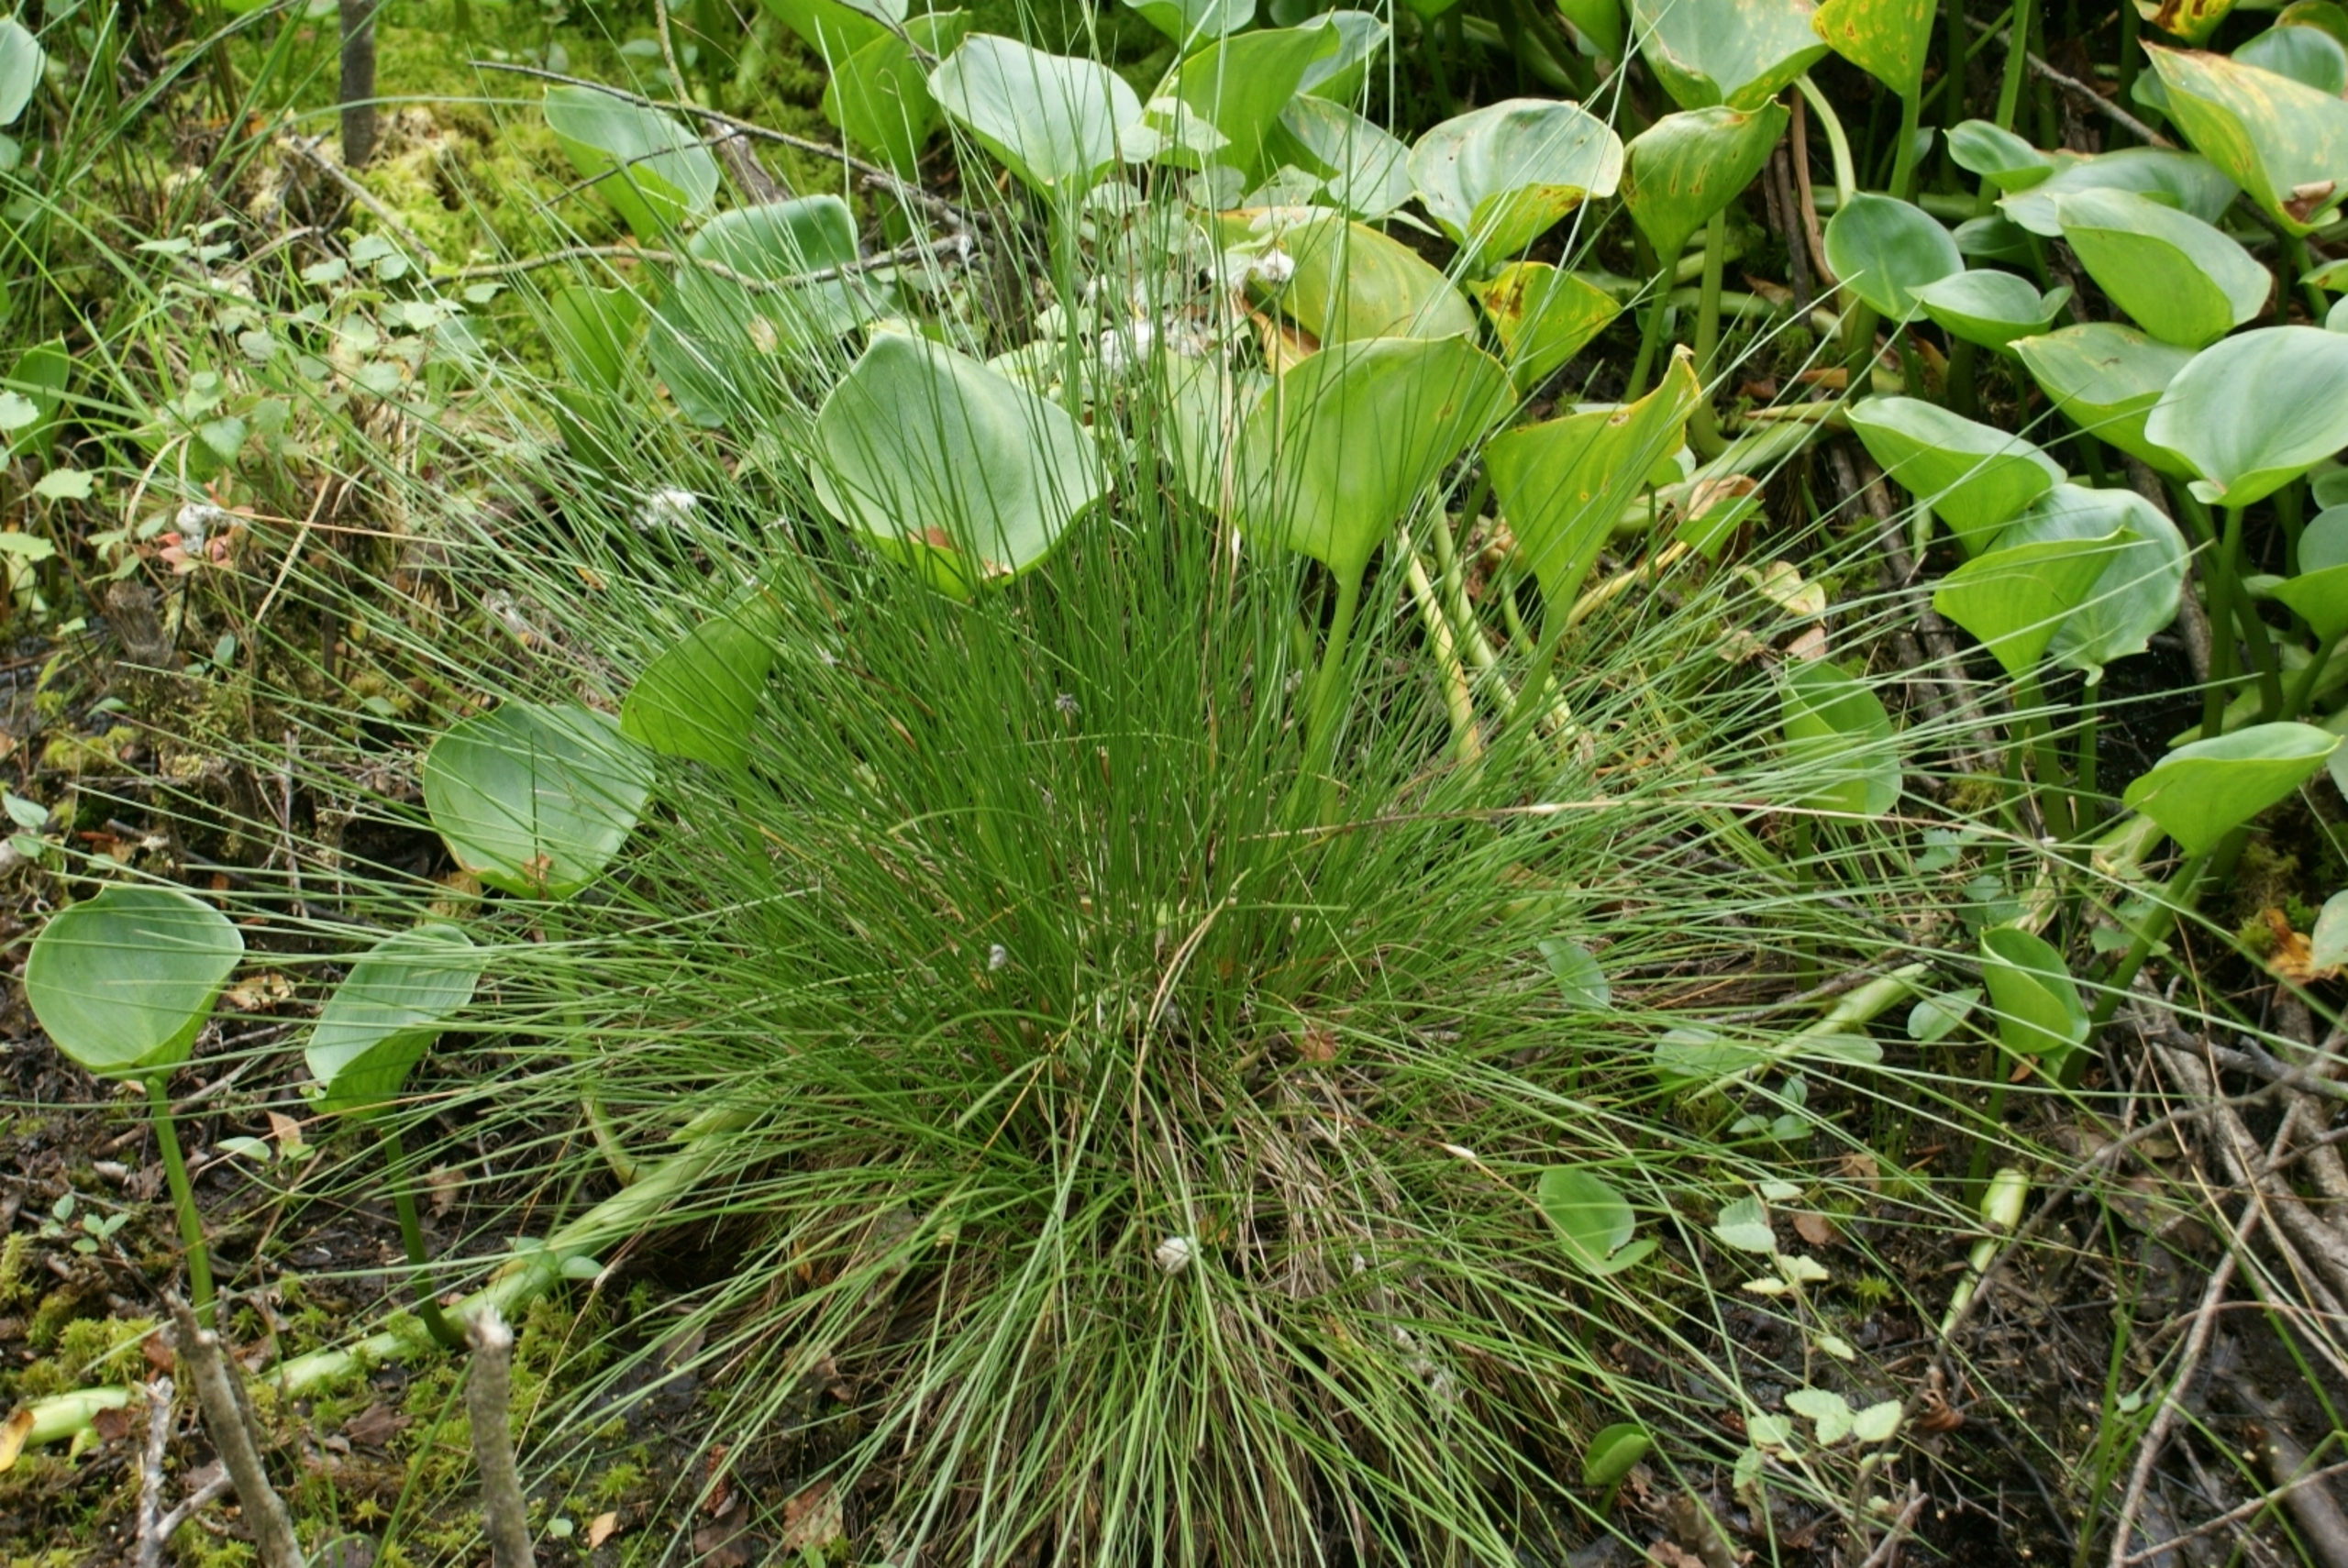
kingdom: Plantae
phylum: Tracheophyta
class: Liliopsida
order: Poales
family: Cyperaceae
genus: Eriophorum
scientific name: Eriophorum vaginatum
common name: Tue-kæruld
